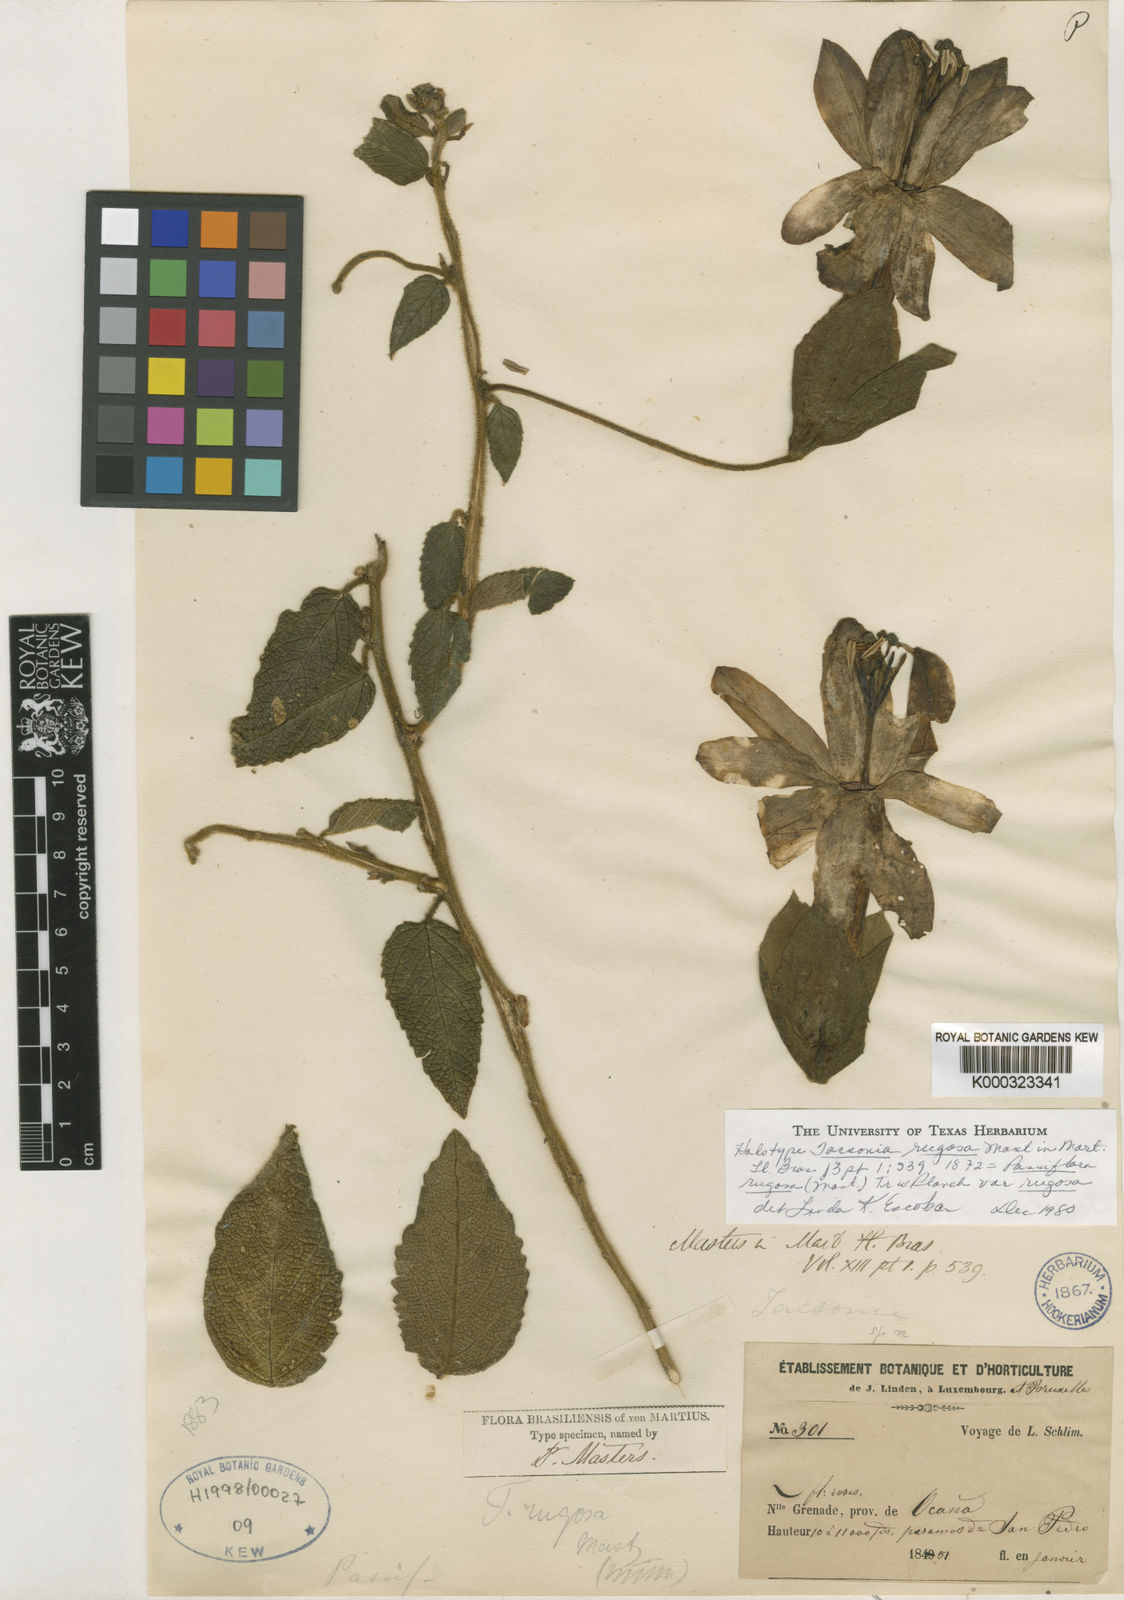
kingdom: Plantae
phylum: Tracheophyta
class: Magnoliopsida
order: Malpighiales
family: Passifloraceae
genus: Passiflora
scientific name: Passiflora rugosa
